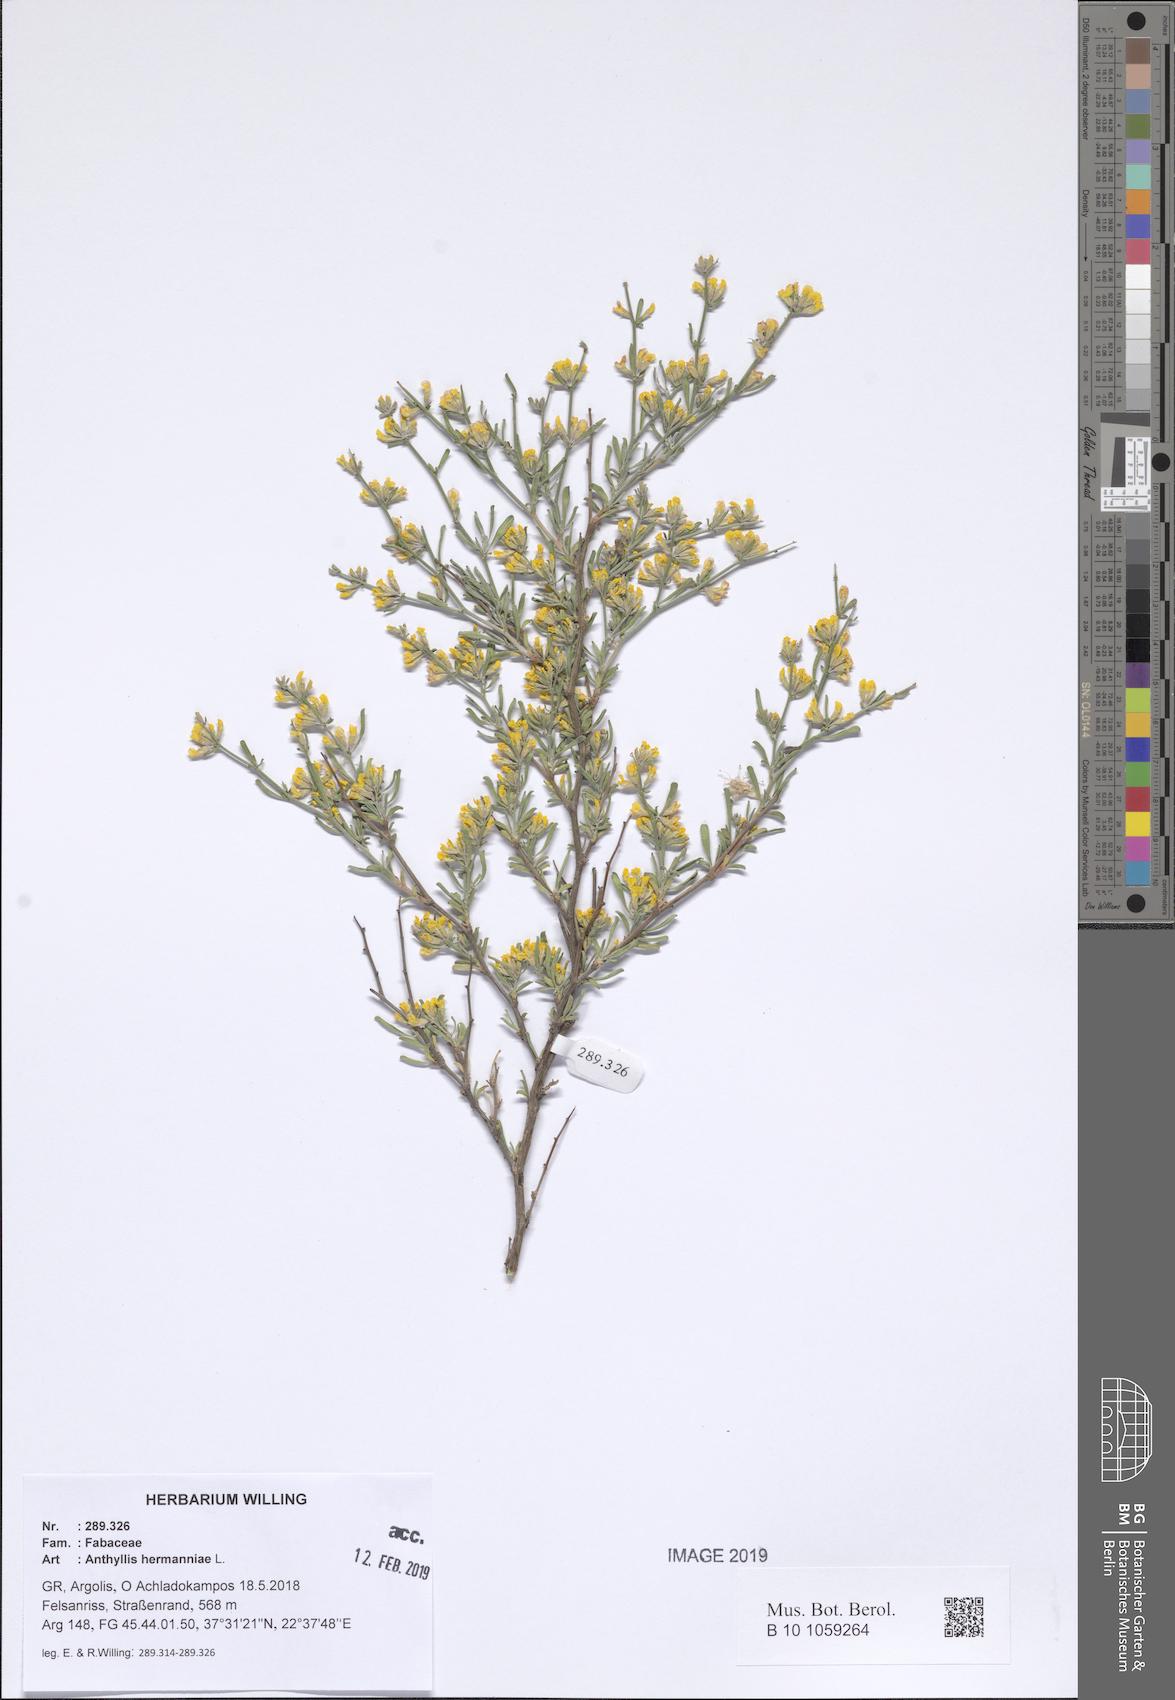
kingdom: Plantae
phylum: Tracheophyta
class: Magnoliopsida
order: Fabales
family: Fabaceae
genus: Anthyllis
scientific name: Anthyllis hermanniae
